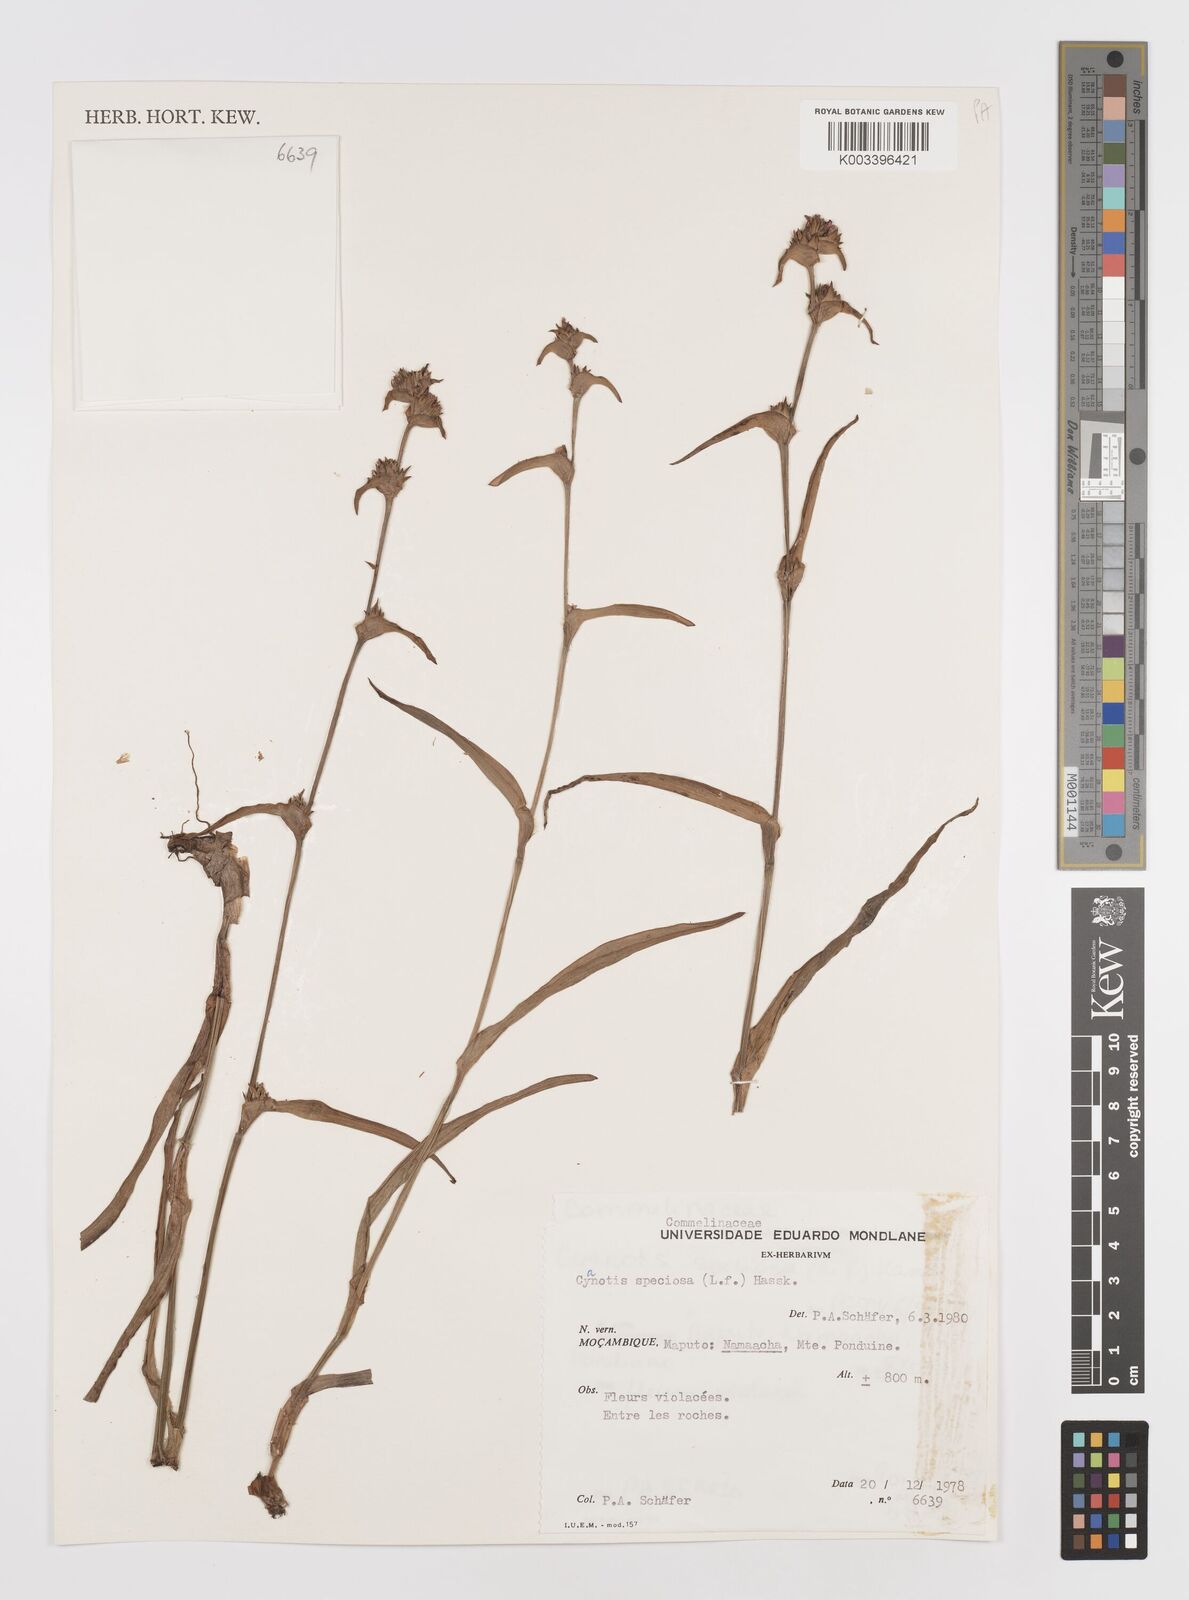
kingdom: Plantae
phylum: Tracheophyta
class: Liliopsida
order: Commelinales
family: Commelinaceae
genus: Cyanotis
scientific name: Cyanotis speciosa
